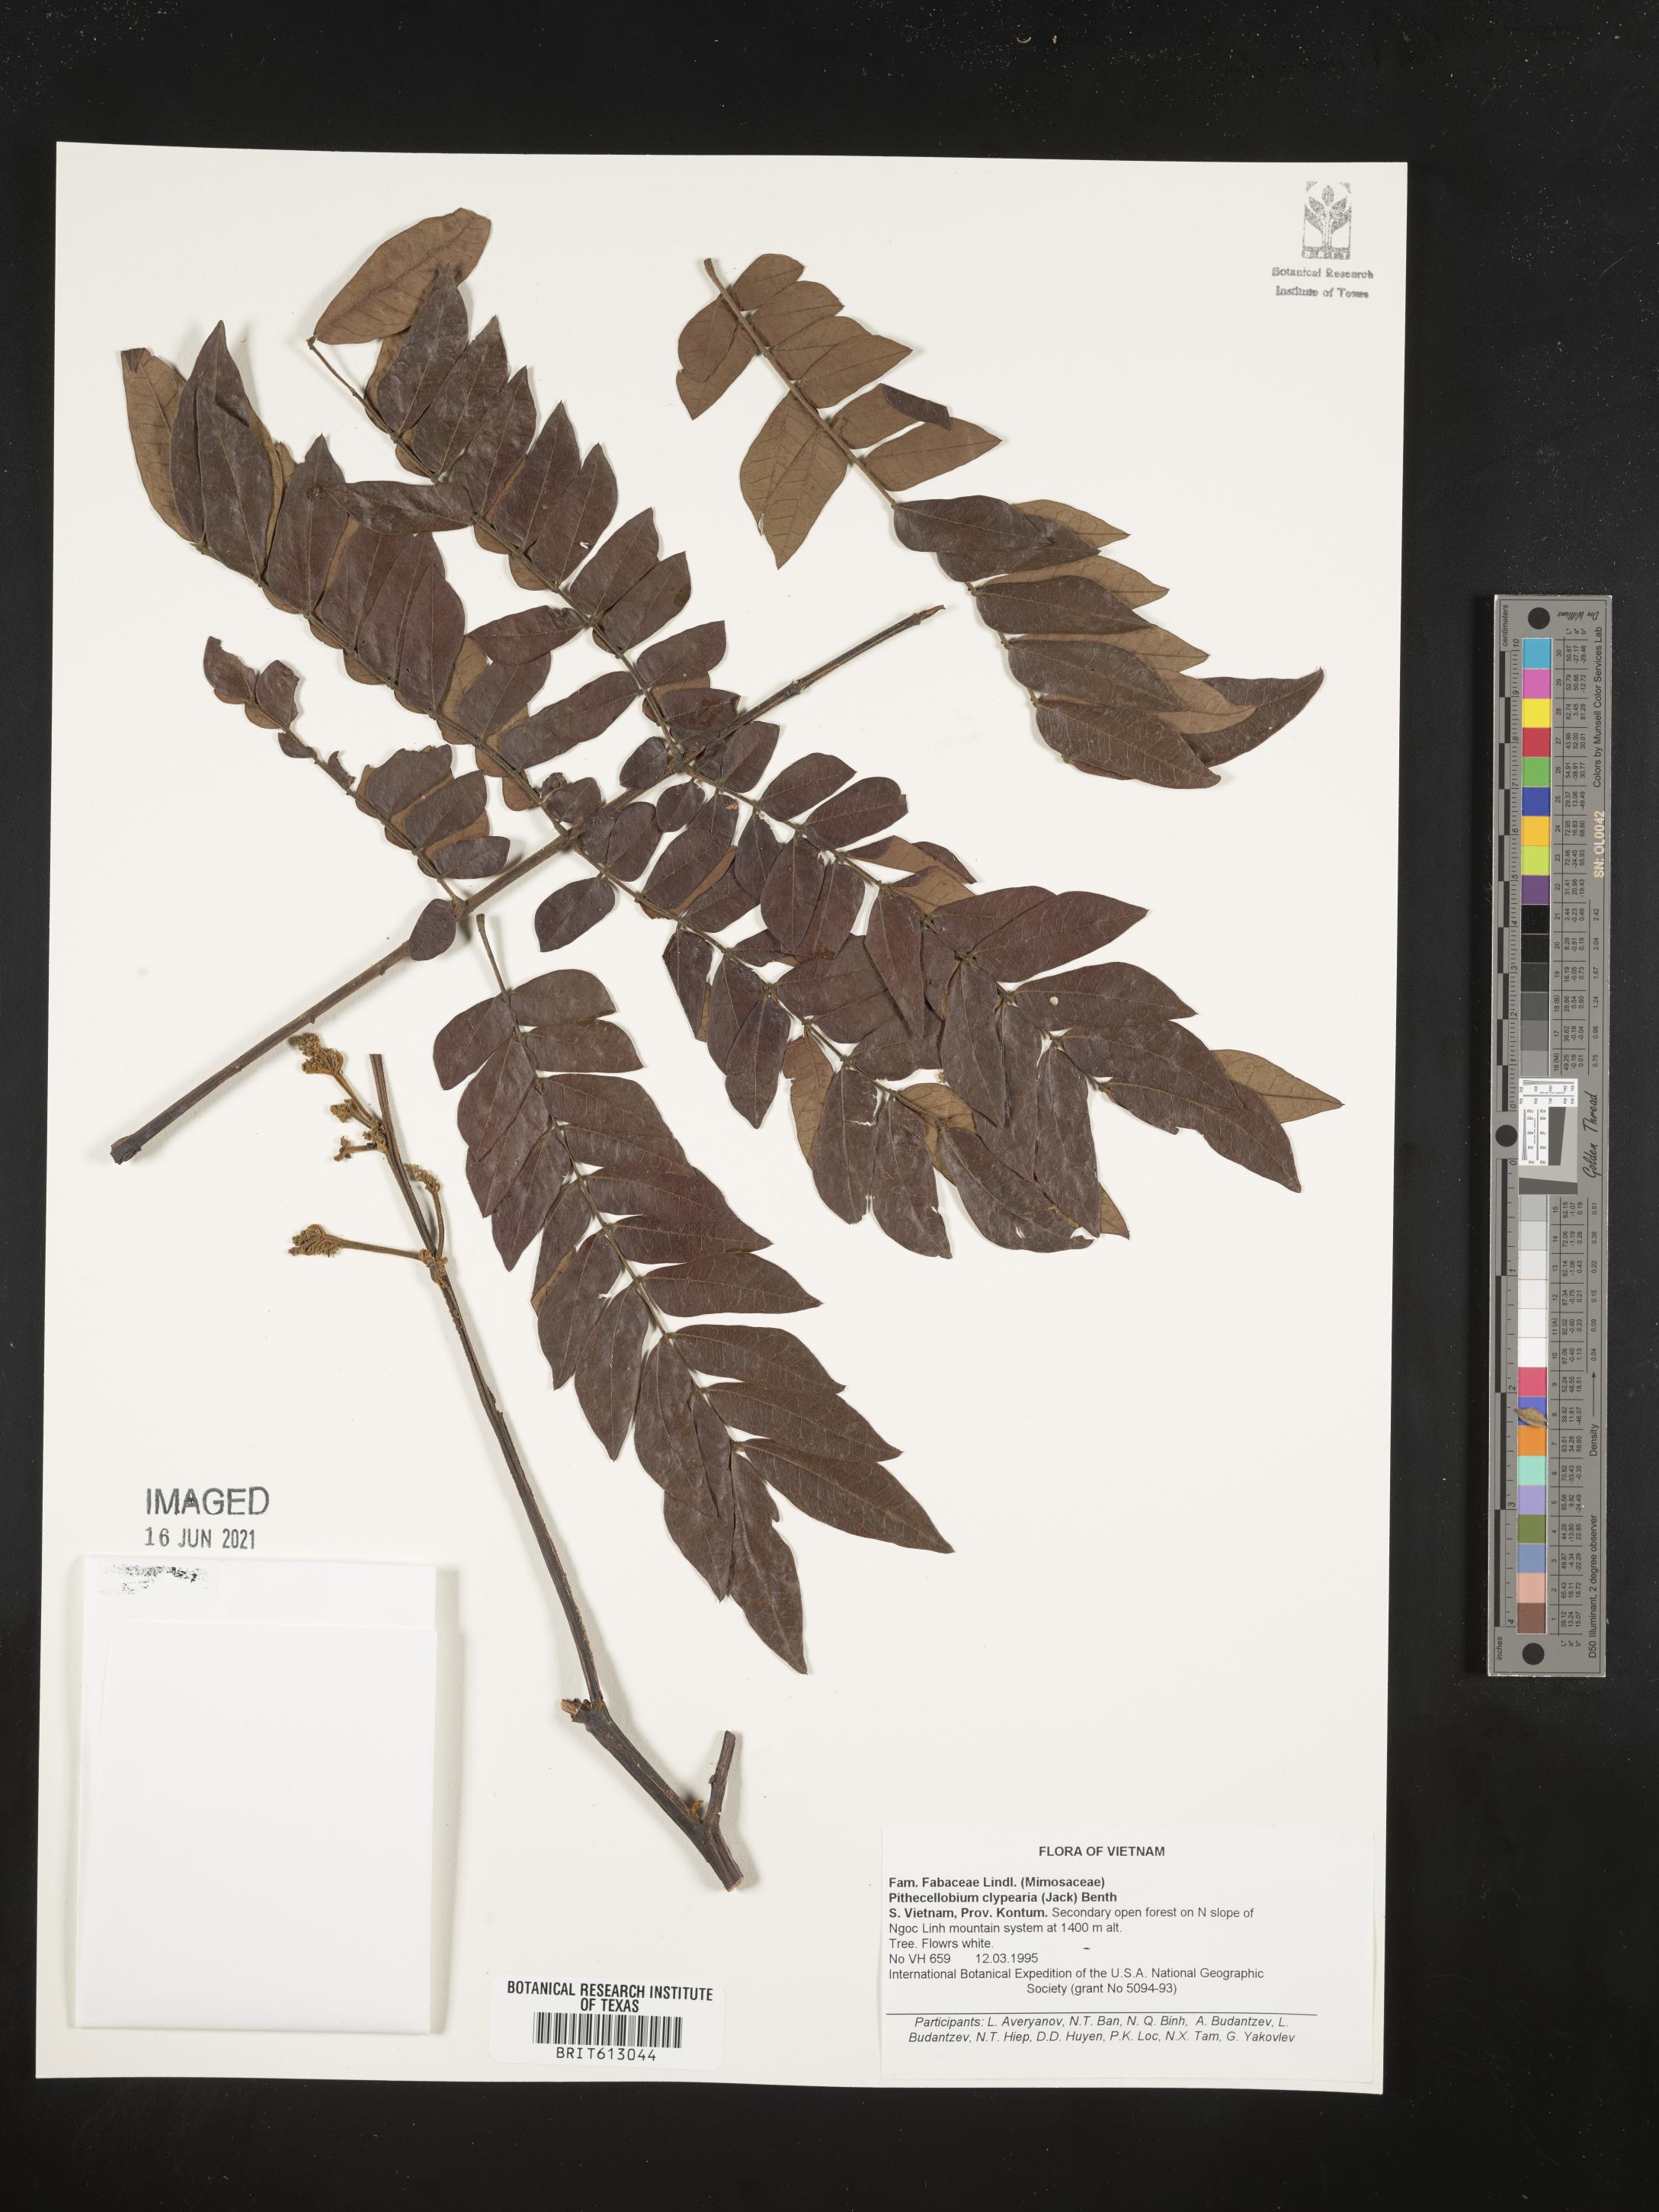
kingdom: Plantae
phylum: Tracheophyta
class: Magnoliopsida
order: Fabales
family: Fabaceae
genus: Archidendron
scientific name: Archidendron clypearia
